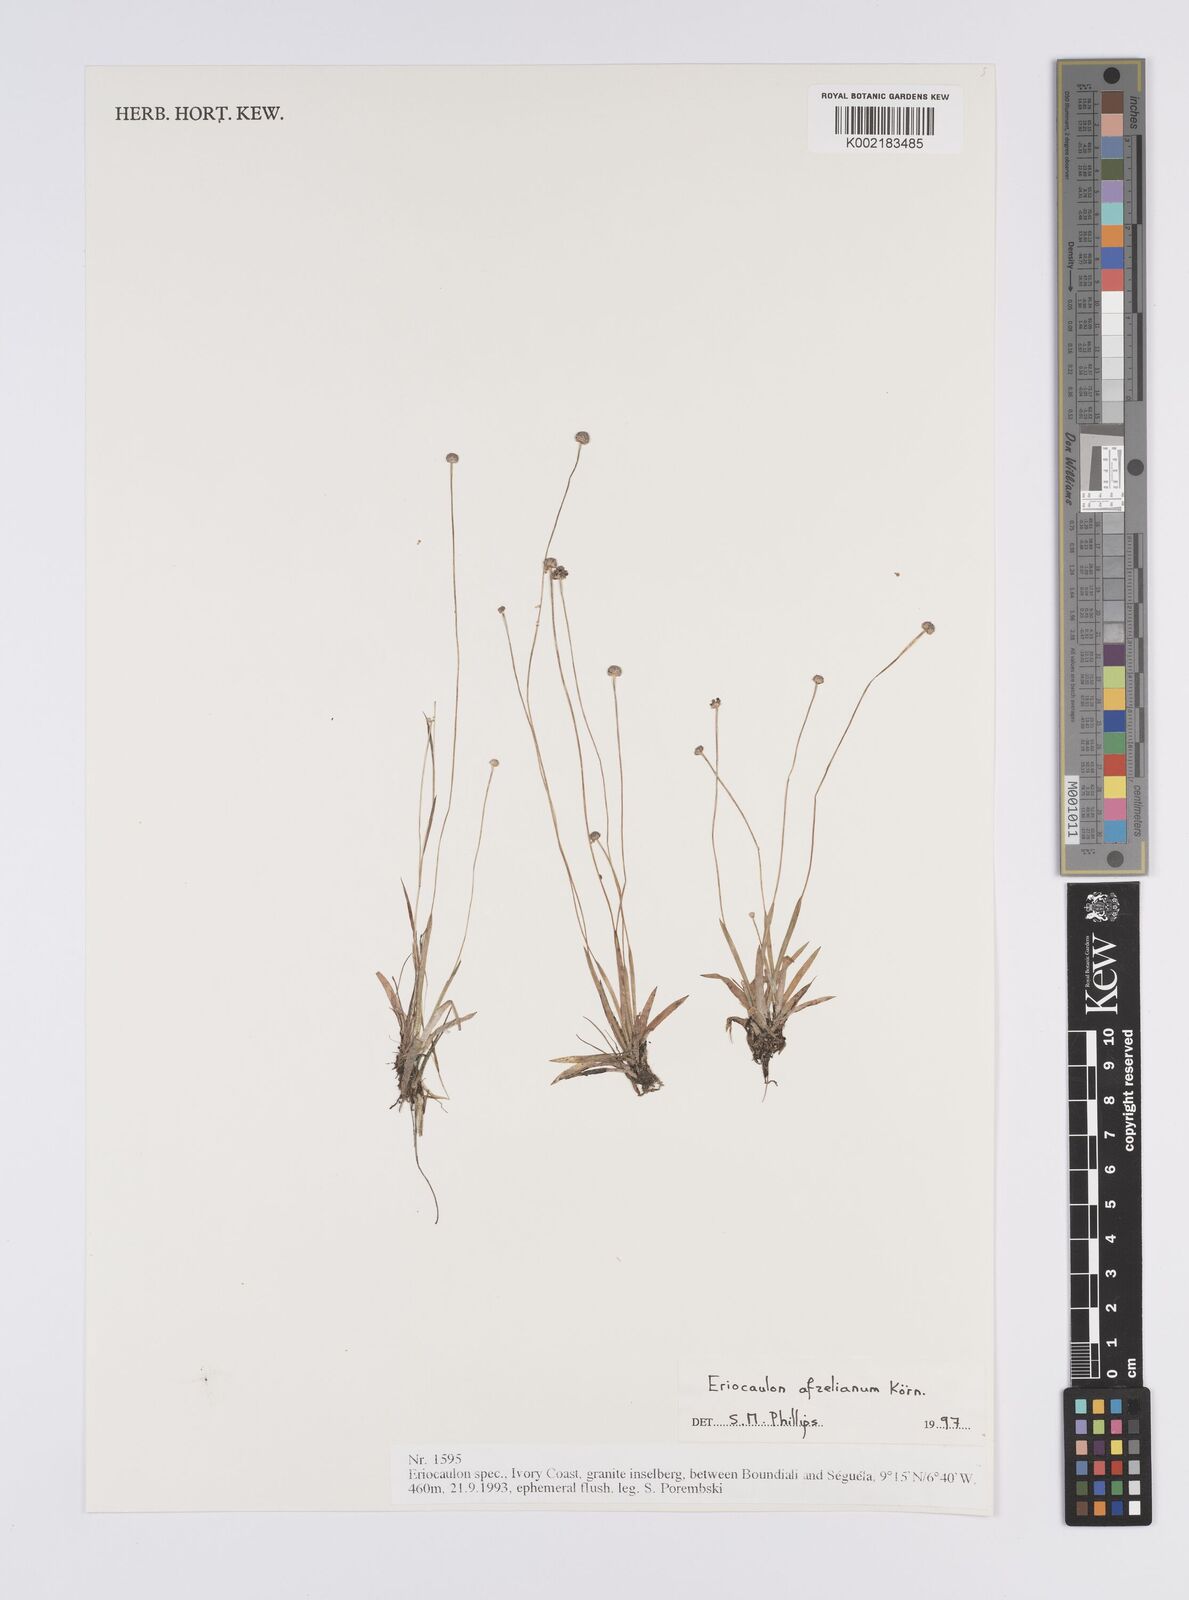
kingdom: Plantae
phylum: Tracheophyta
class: Liliopsida
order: Poales
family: Eriocaulaceae
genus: Eriocaulon
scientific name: Eriocaulon afzelianum
